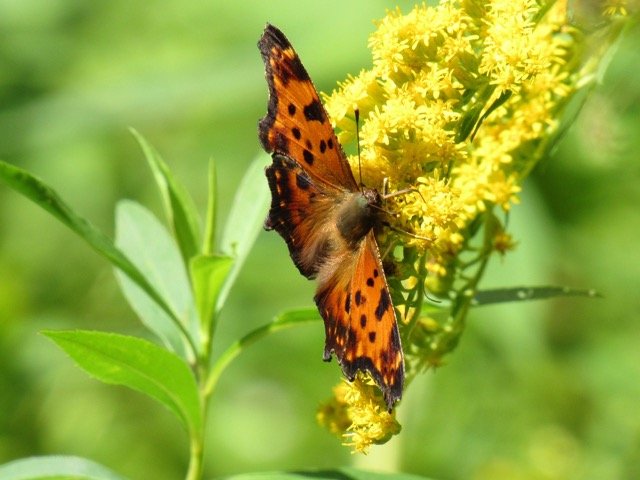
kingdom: Animalia
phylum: Arthropoda
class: Insecta
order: Lepidoptera
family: Nymphalidae
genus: Polygonia
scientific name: Polygonia comma
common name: Eastern Comma
